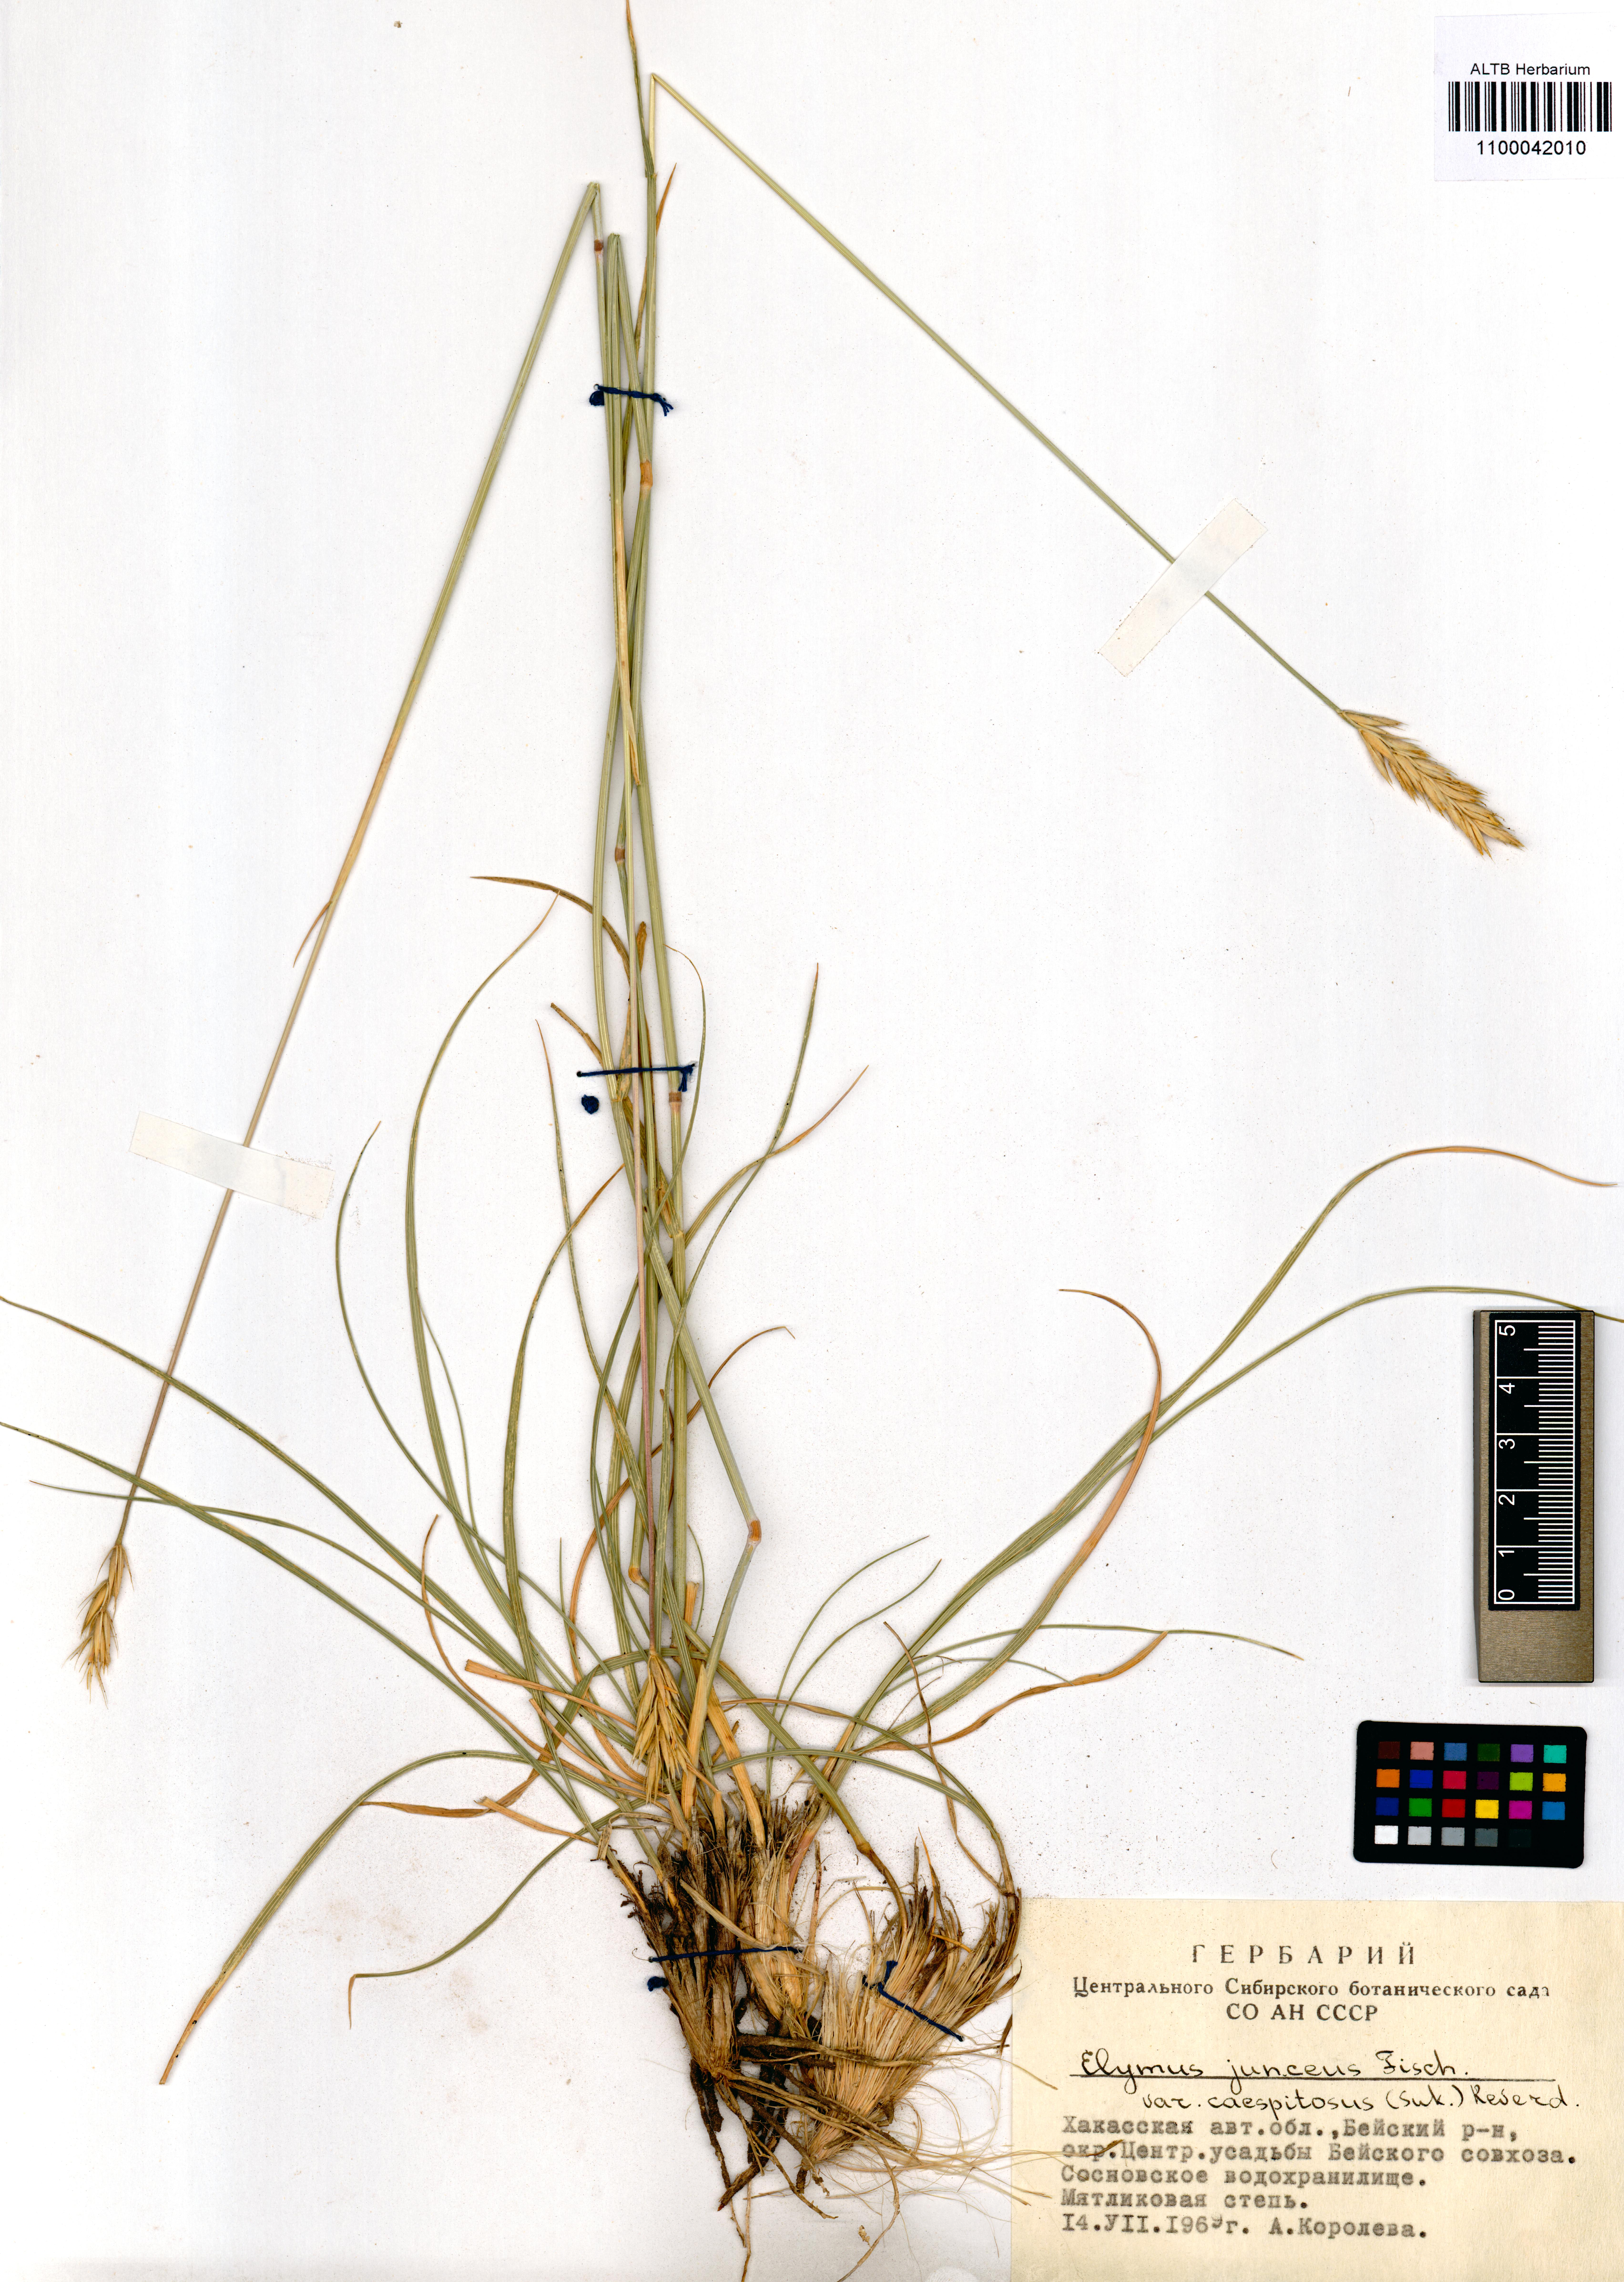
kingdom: Plantae
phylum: Tracheophyta
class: Liliopsida
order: Poales
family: Poaceae
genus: Psathyrostachys
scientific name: Psathyrostachys juncea
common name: Russian wildrye
